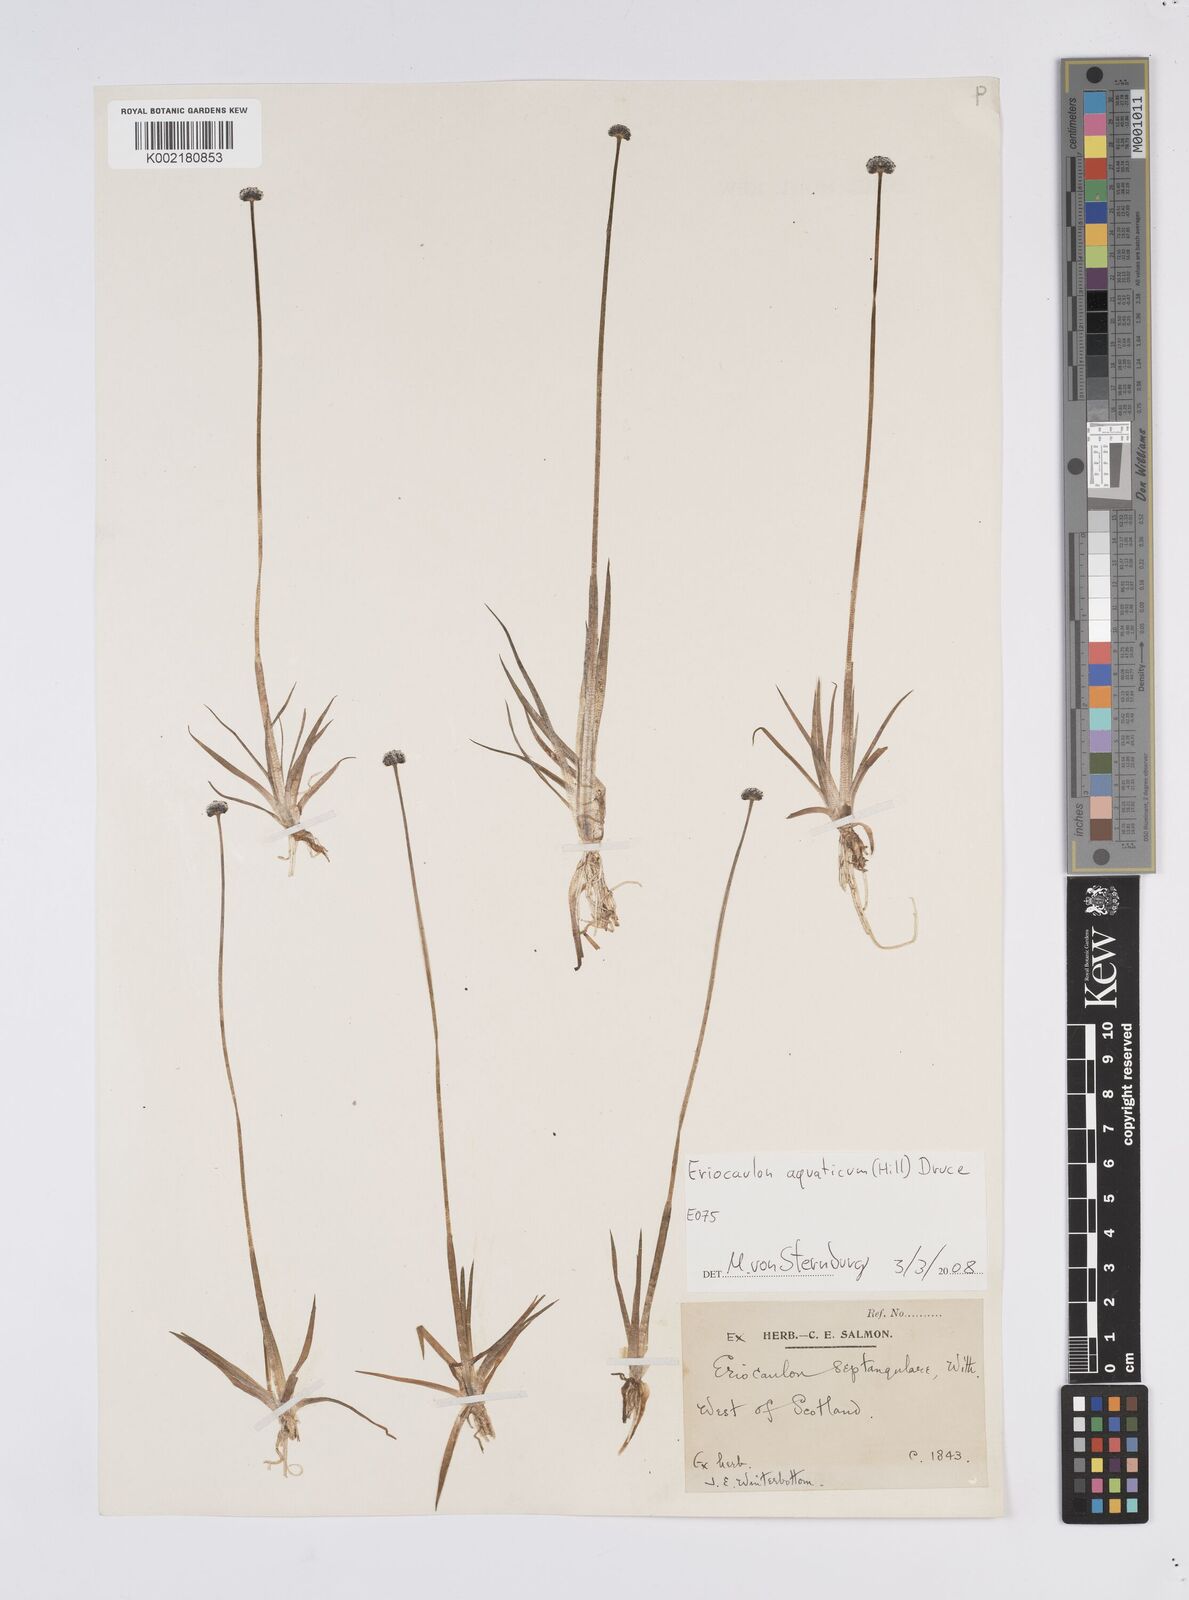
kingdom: Plantae
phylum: Tracheophyta
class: Liliopsida
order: Poales
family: Eriocaulaceae
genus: Eriocaulon
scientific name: Eriocaulon aquaticum
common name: Pipewort
